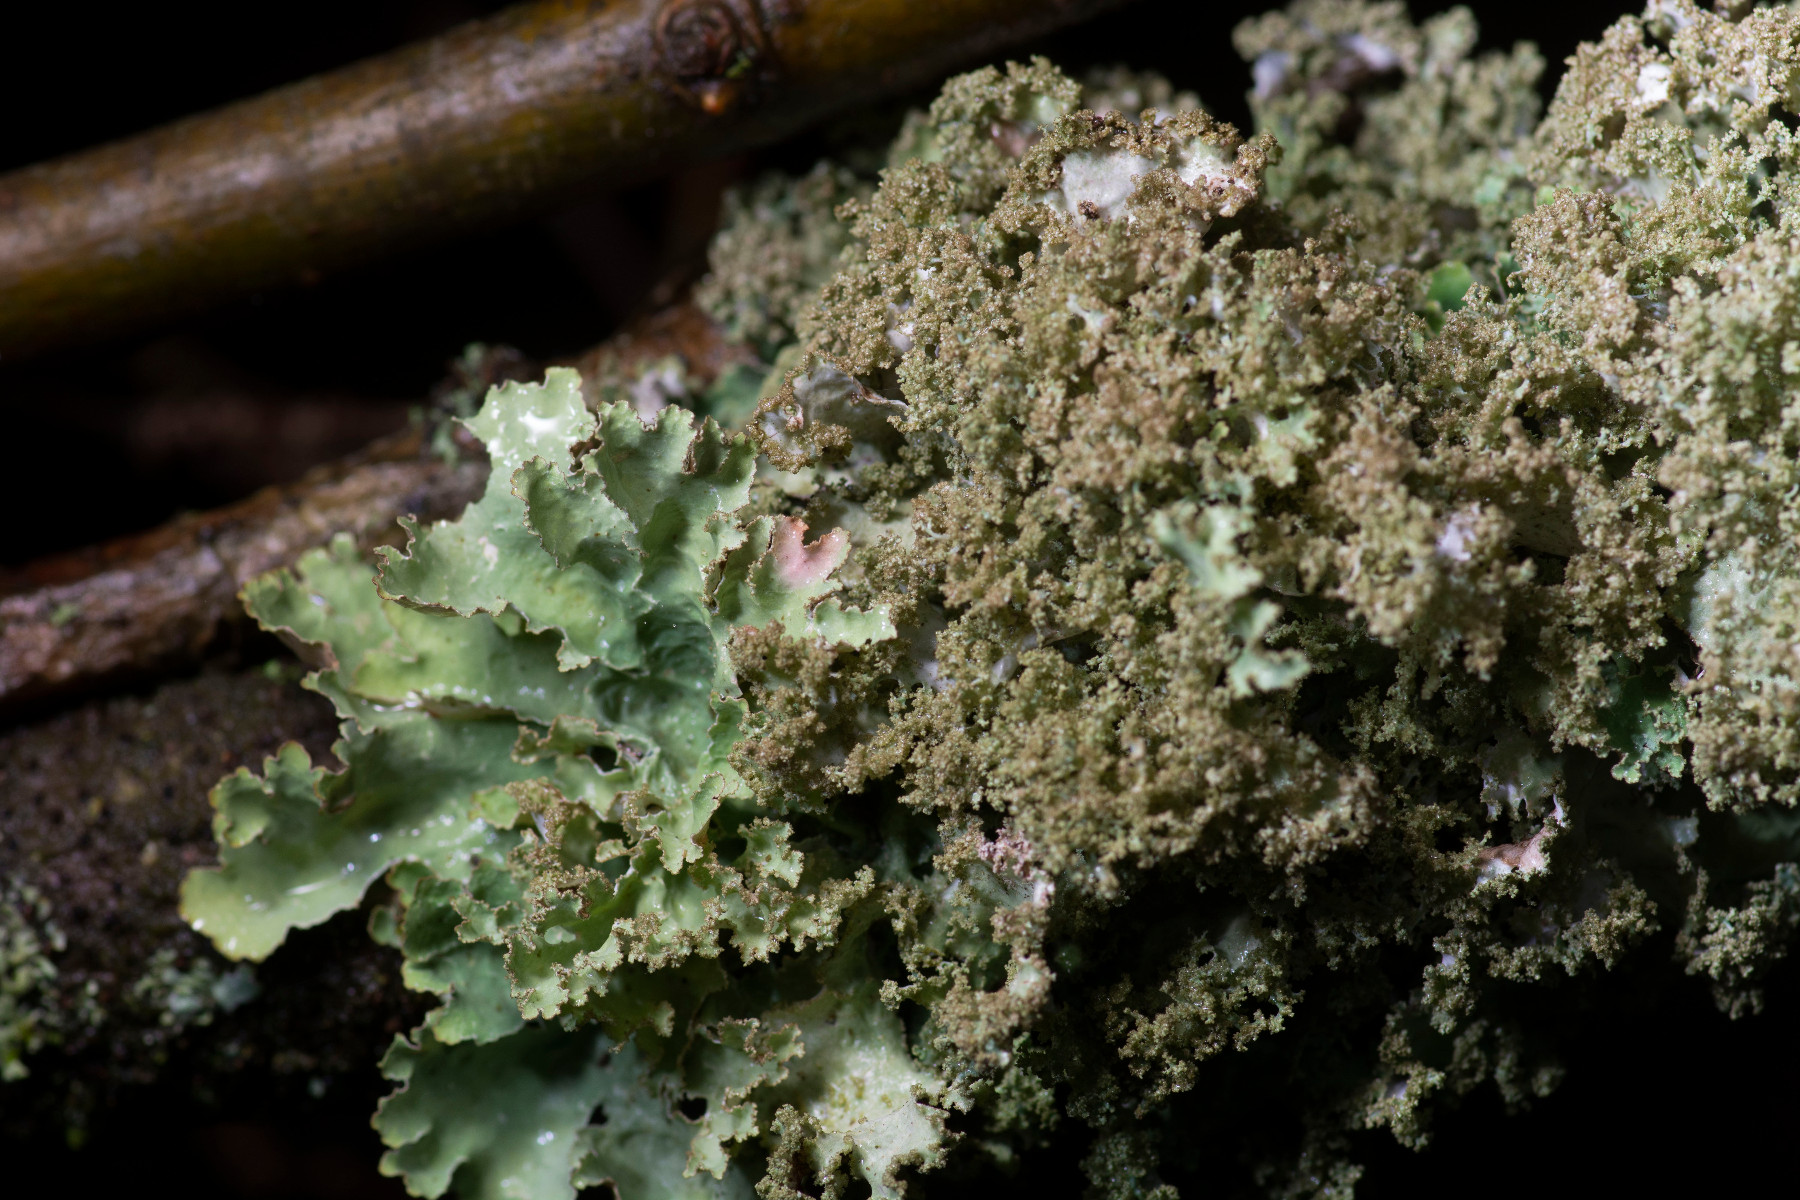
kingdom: Fungi
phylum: Ascomycota
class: Lecanoromycetes
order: Lecanorales
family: Parmeliaceae
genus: Platismatia
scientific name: Platismatia glauca
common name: blågrå papirlav
